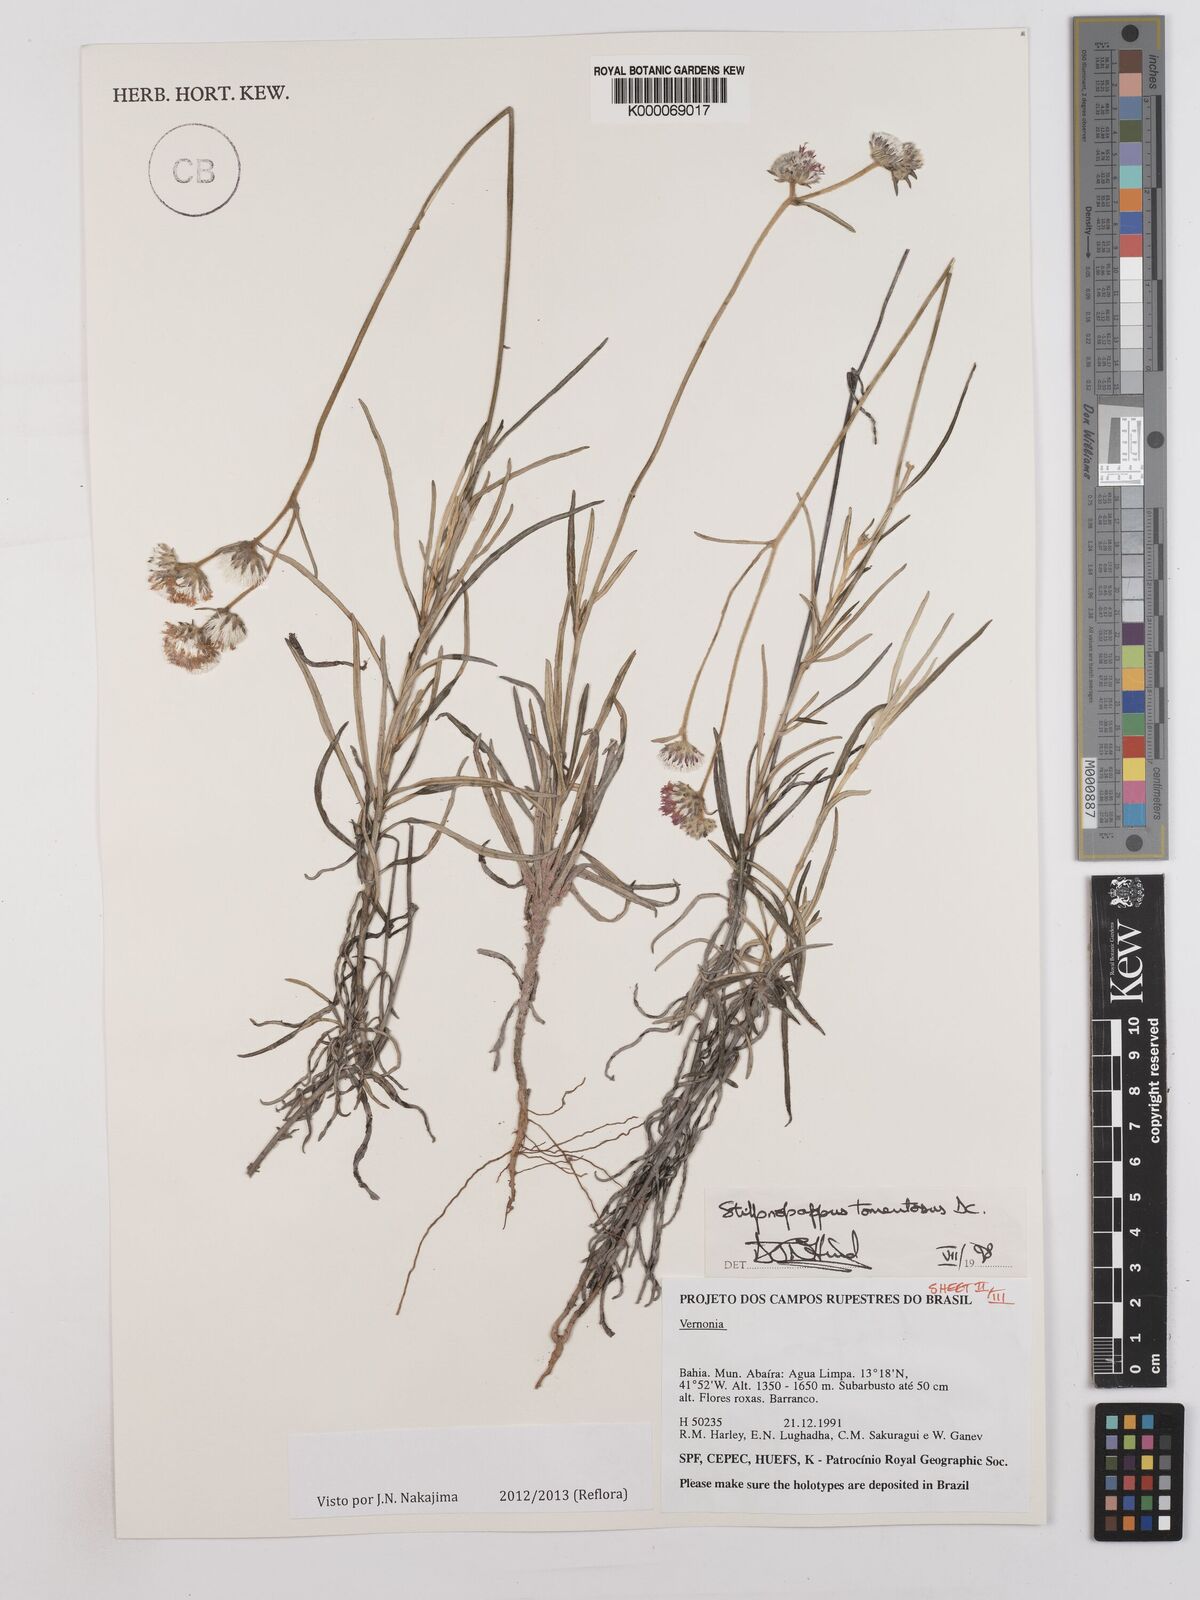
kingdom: Plantae
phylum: Tracheophyta
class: Magnoliopsida
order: Asterales
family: Asteraceae
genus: Stilpnopappus
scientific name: Stilpnopappus tomentosus
